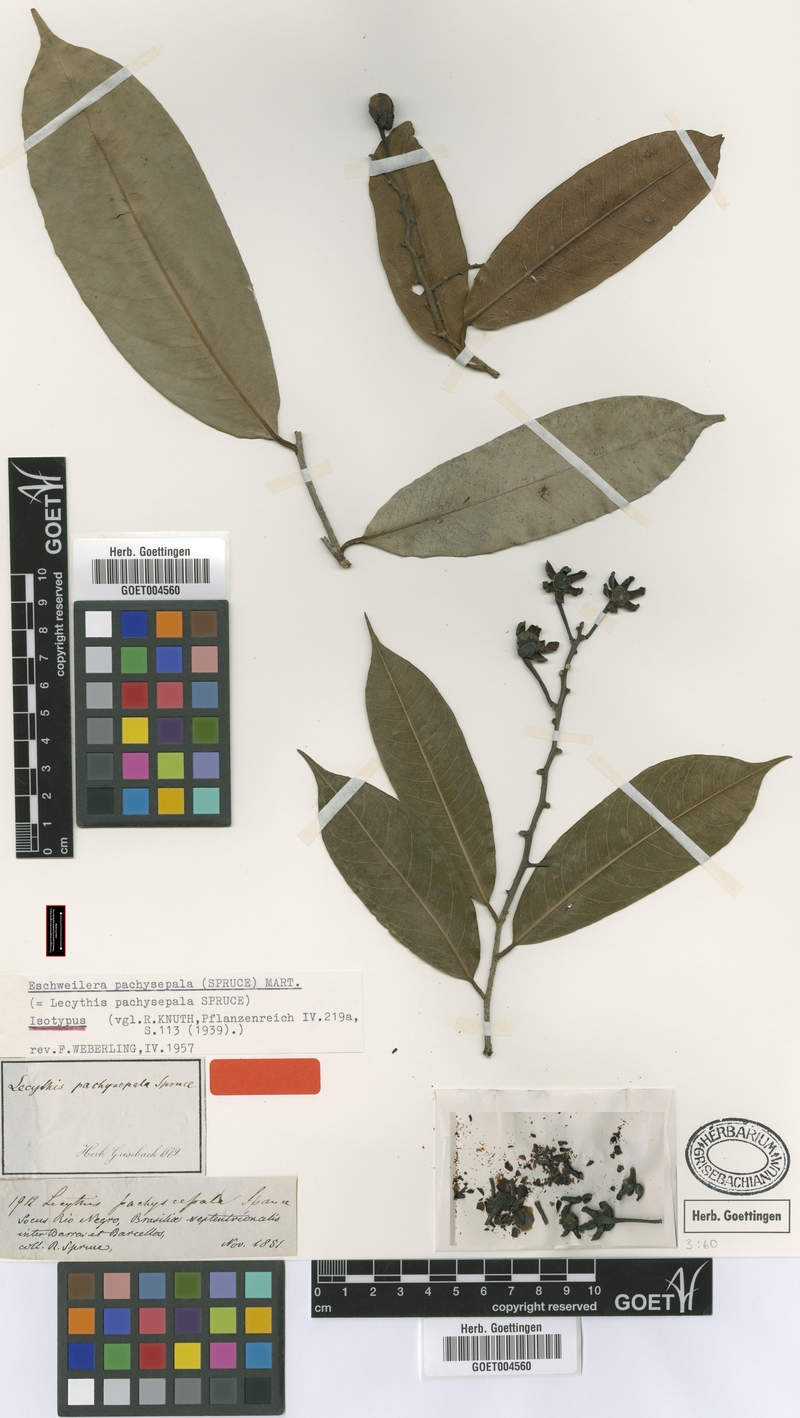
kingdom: Plantae
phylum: Tracheophyta
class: Magnoliopsida
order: Ericales
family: Lecythidaceae
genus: Eschweilera
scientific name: Eschweilera pachysepala
